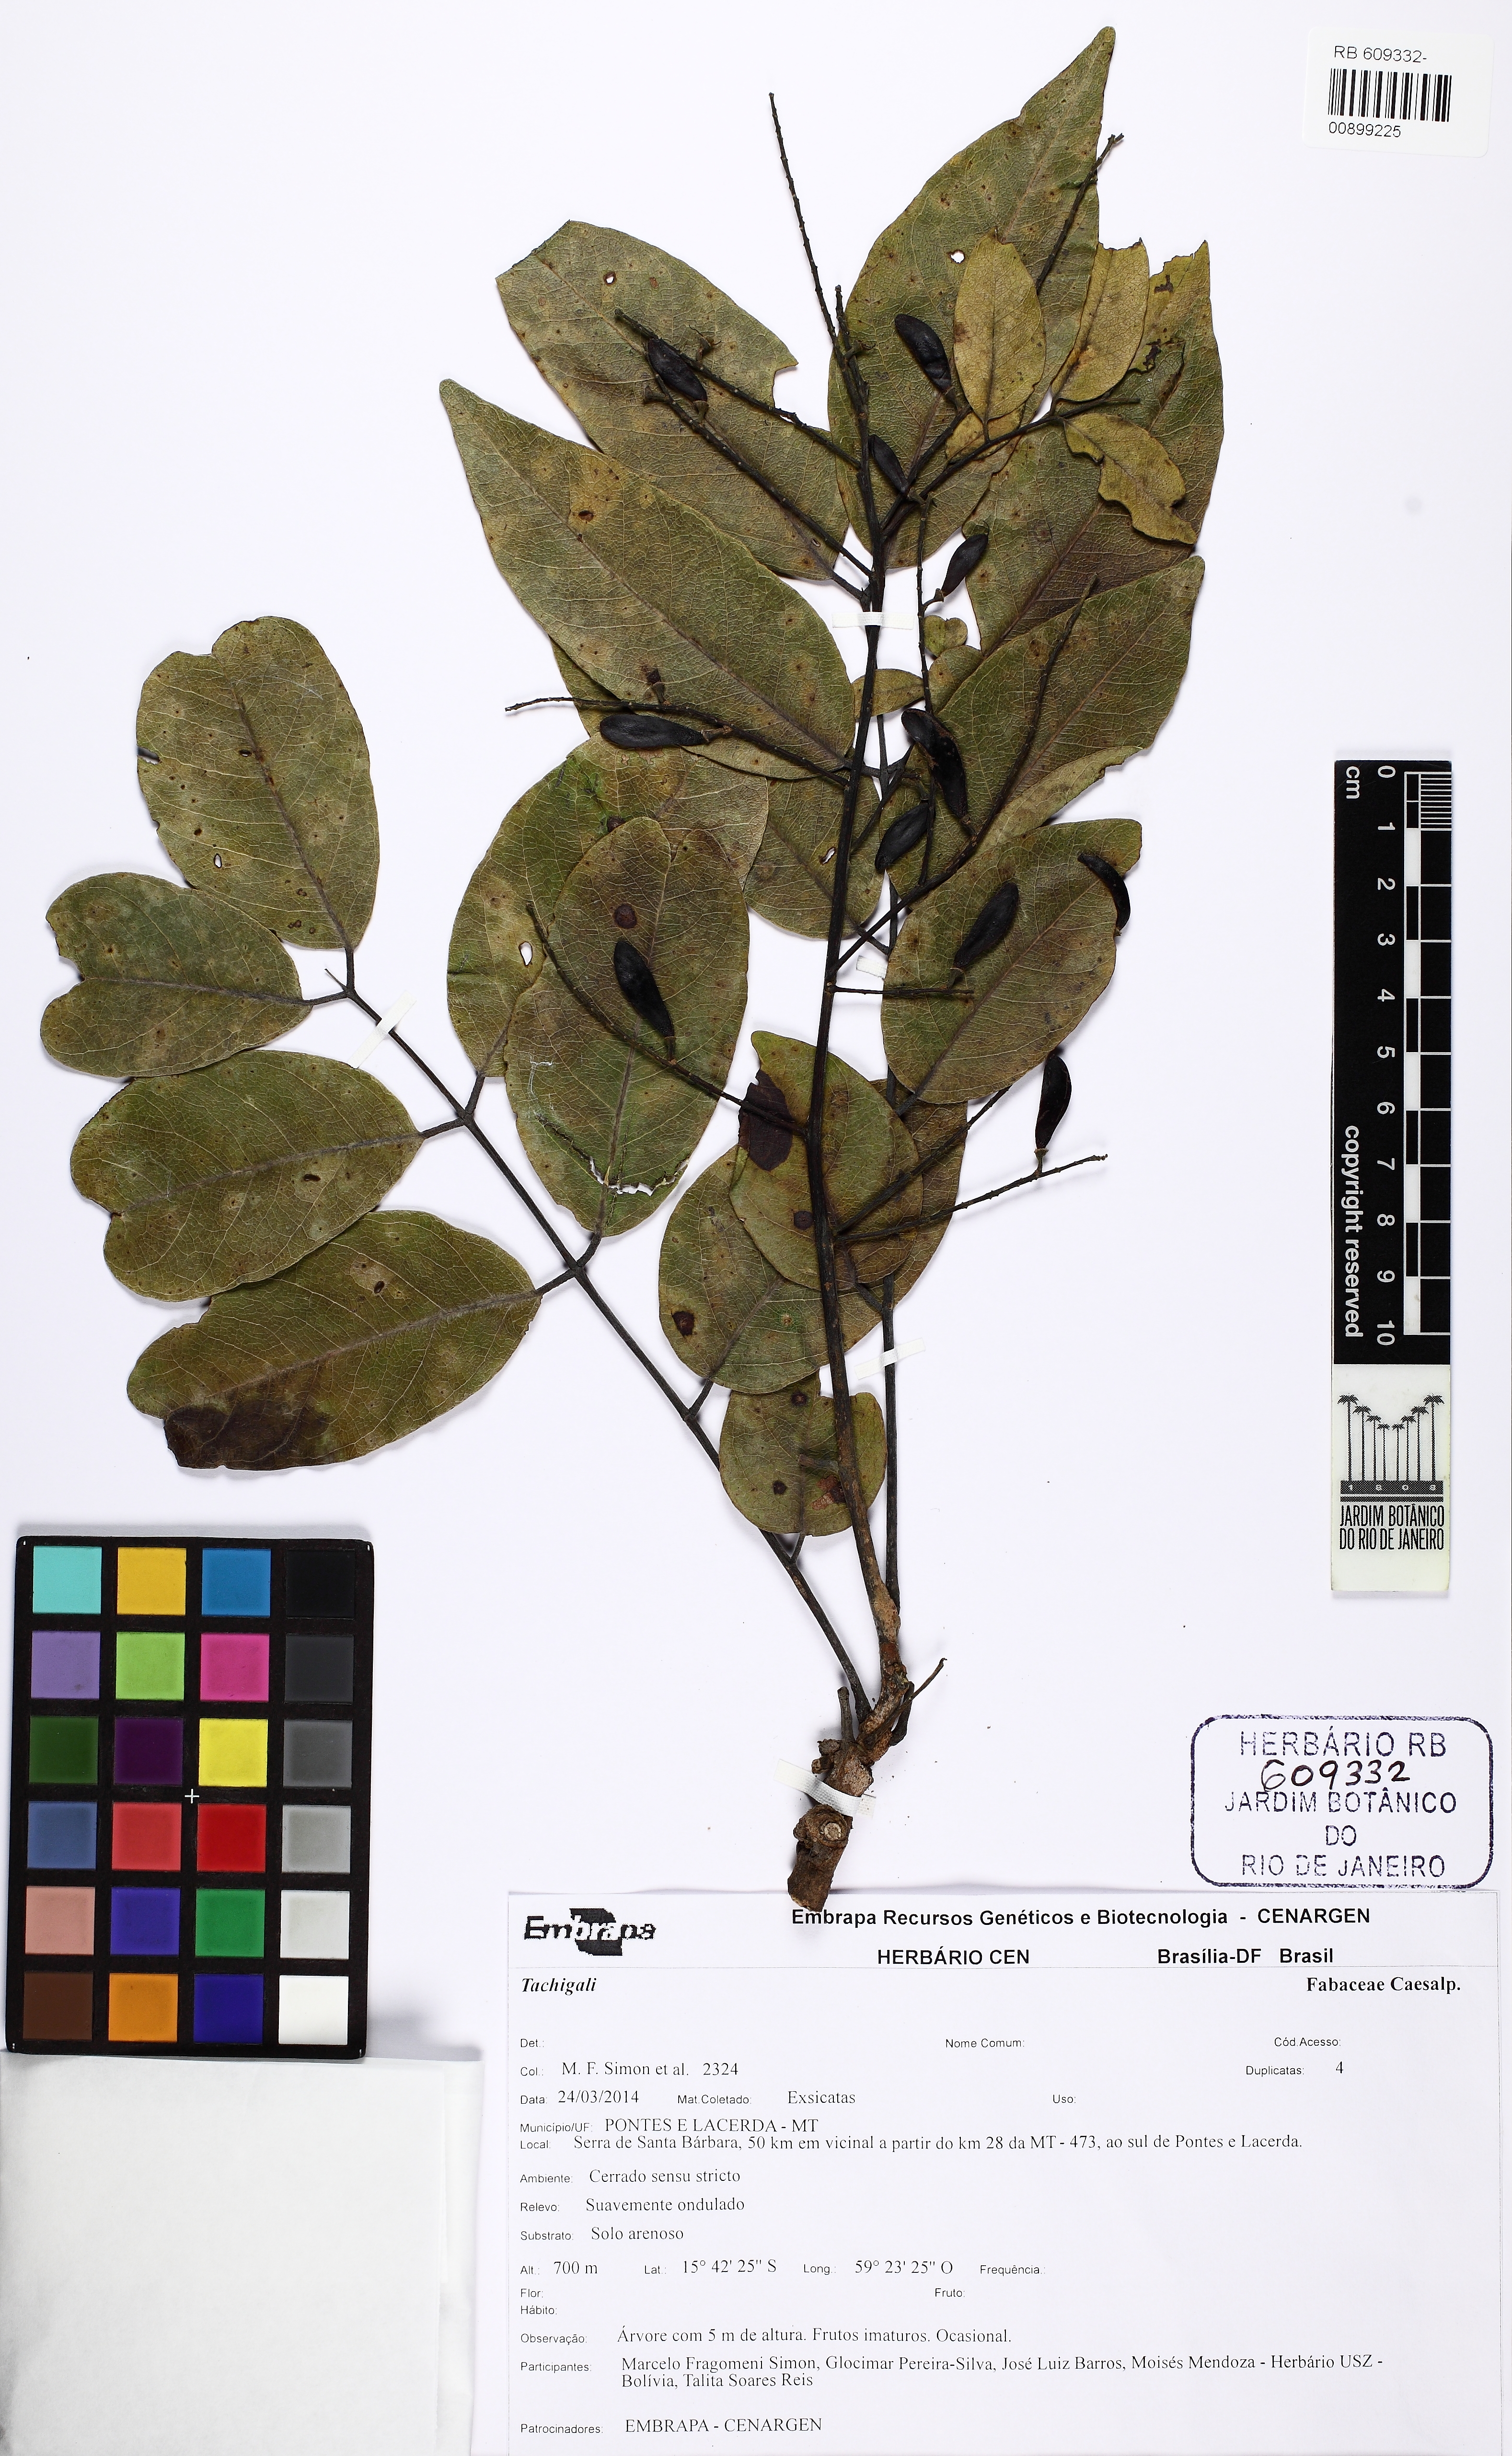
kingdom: Plantae
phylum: Tracheophyta
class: Magnoliopsida
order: Fabales
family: Fabaceae
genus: Tachigali
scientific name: Tachigali aurea
